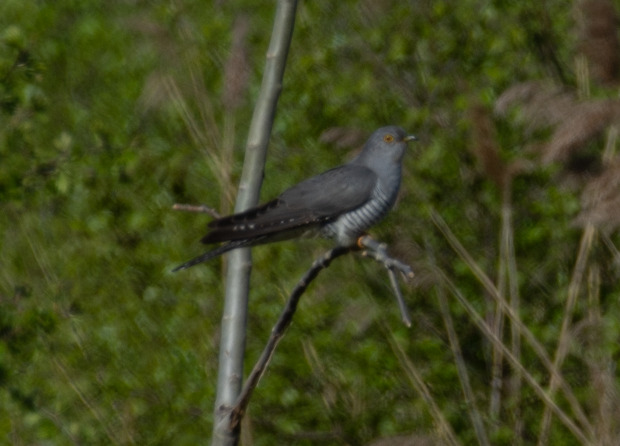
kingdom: Animalia
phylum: Chordata
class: Aves
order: Cuculiformes
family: Cuculidae
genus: Cuculus
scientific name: Cuculus canorus
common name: Gøg
